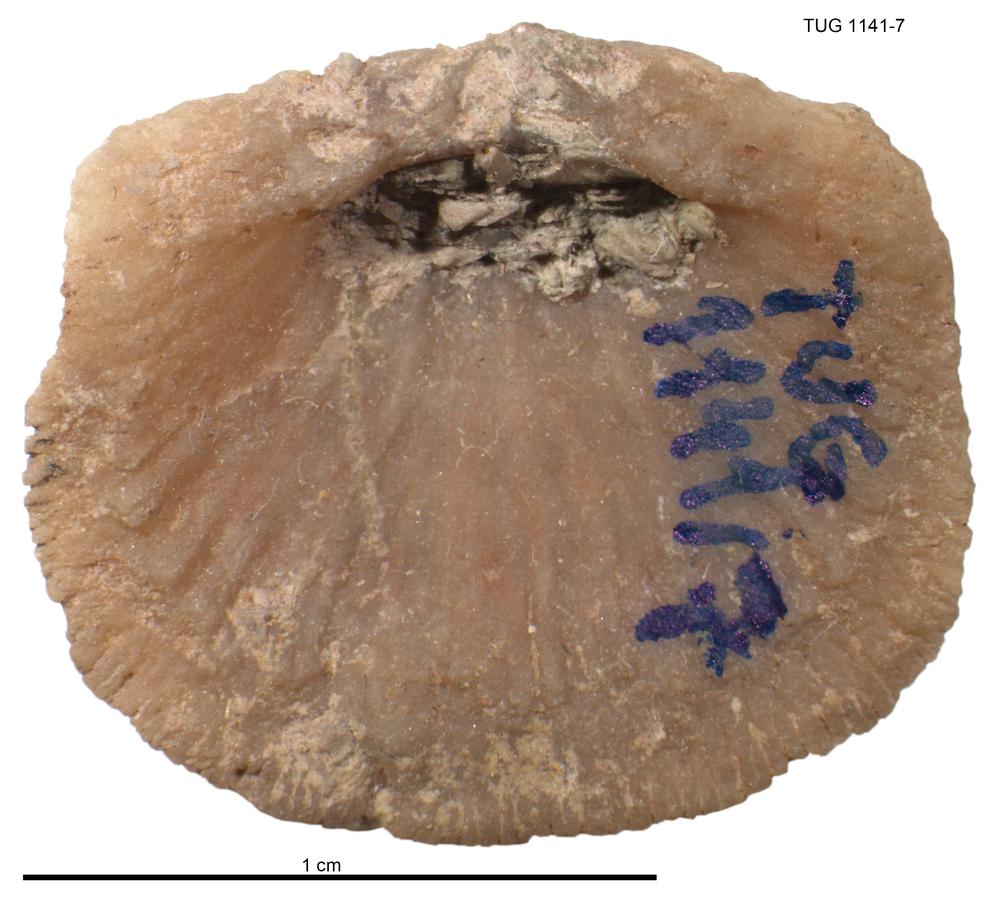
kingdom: Animalia
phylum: Brachiopoda
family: Gonambonitidae
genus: Gonambonites
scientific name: Gonambonites plana
